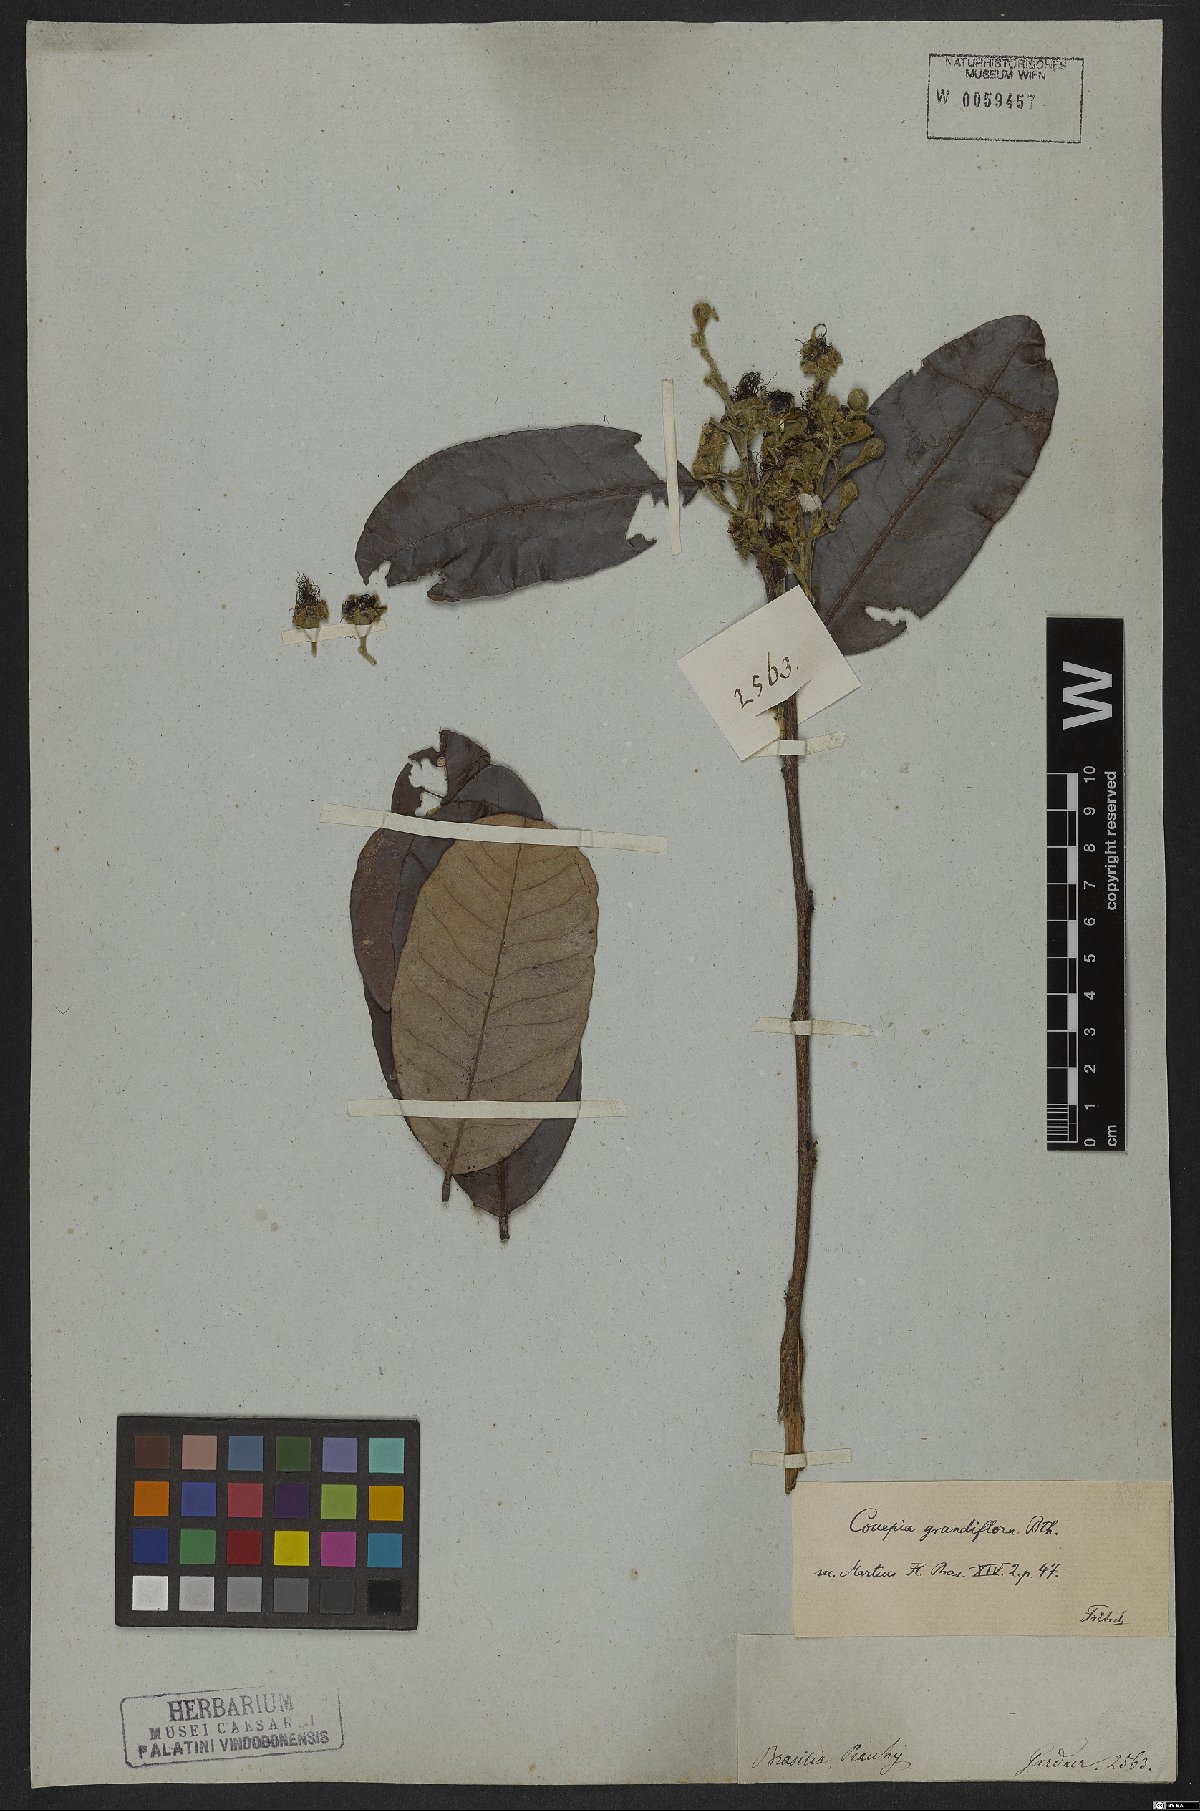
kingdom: Plantae
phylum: Tracheophyta
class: Magnoliopsida
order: Malpighiales
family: Chrysobalanaceae
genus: Couepia
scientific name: Couepia grandiflora
